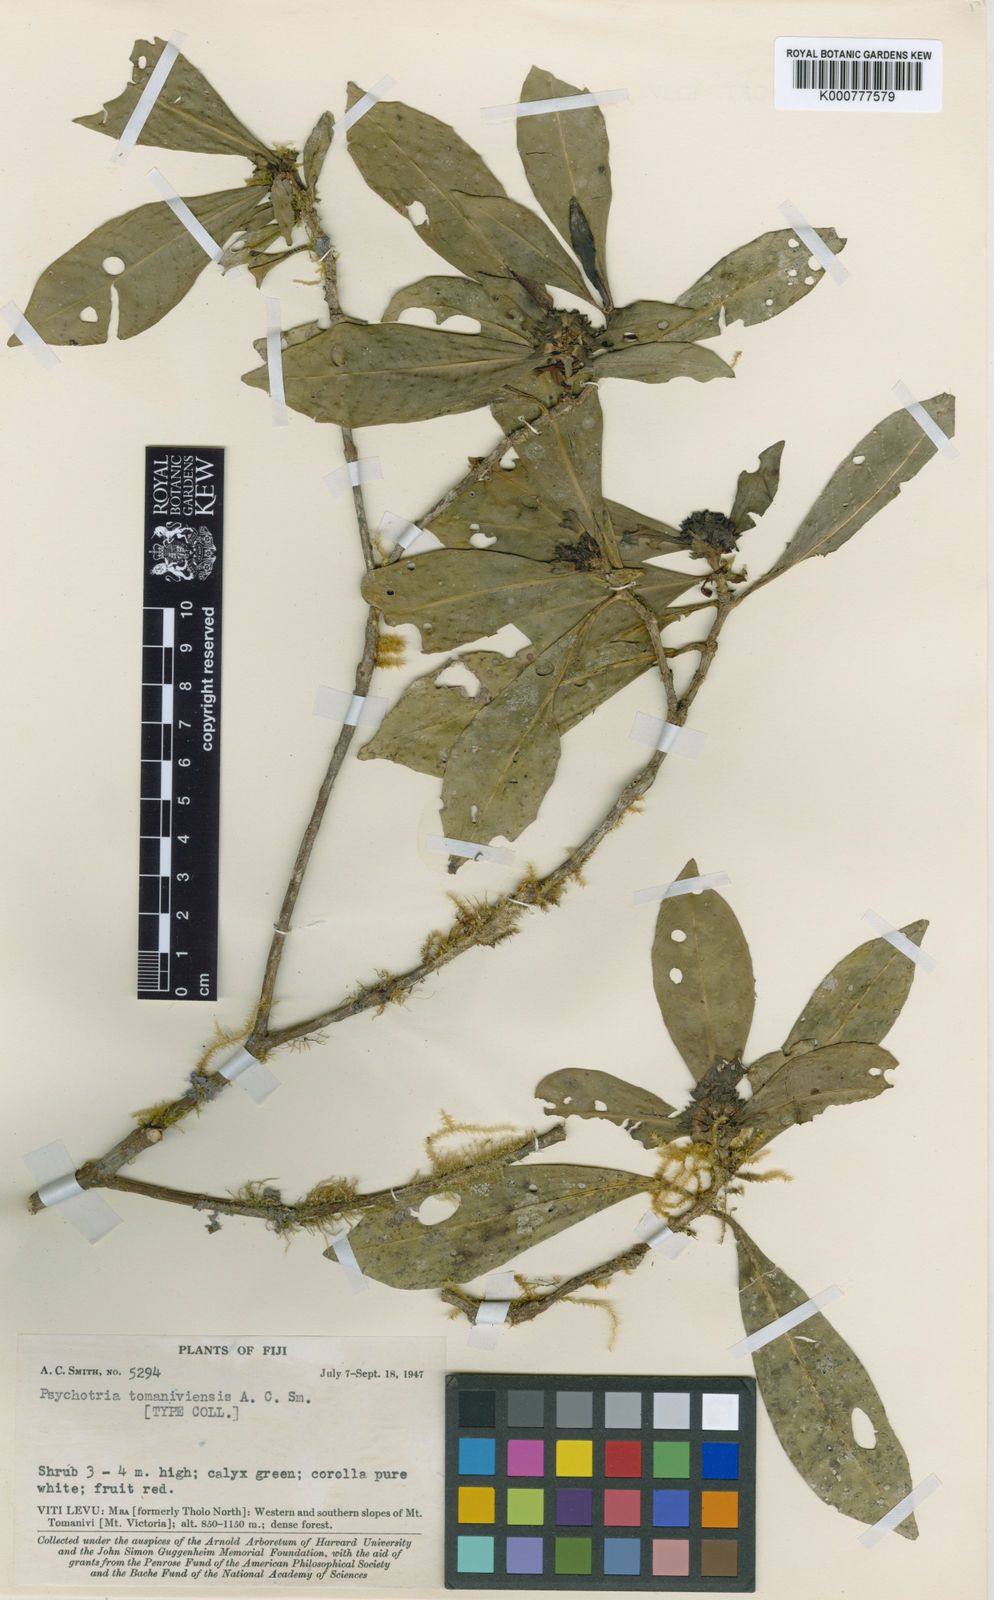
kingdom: Plantae
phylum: Tracheophyta
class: Magnoliopsida
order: Gentianales
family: Rubiaceae
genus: Psychotria
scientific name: Psychotria tomaniviensis
